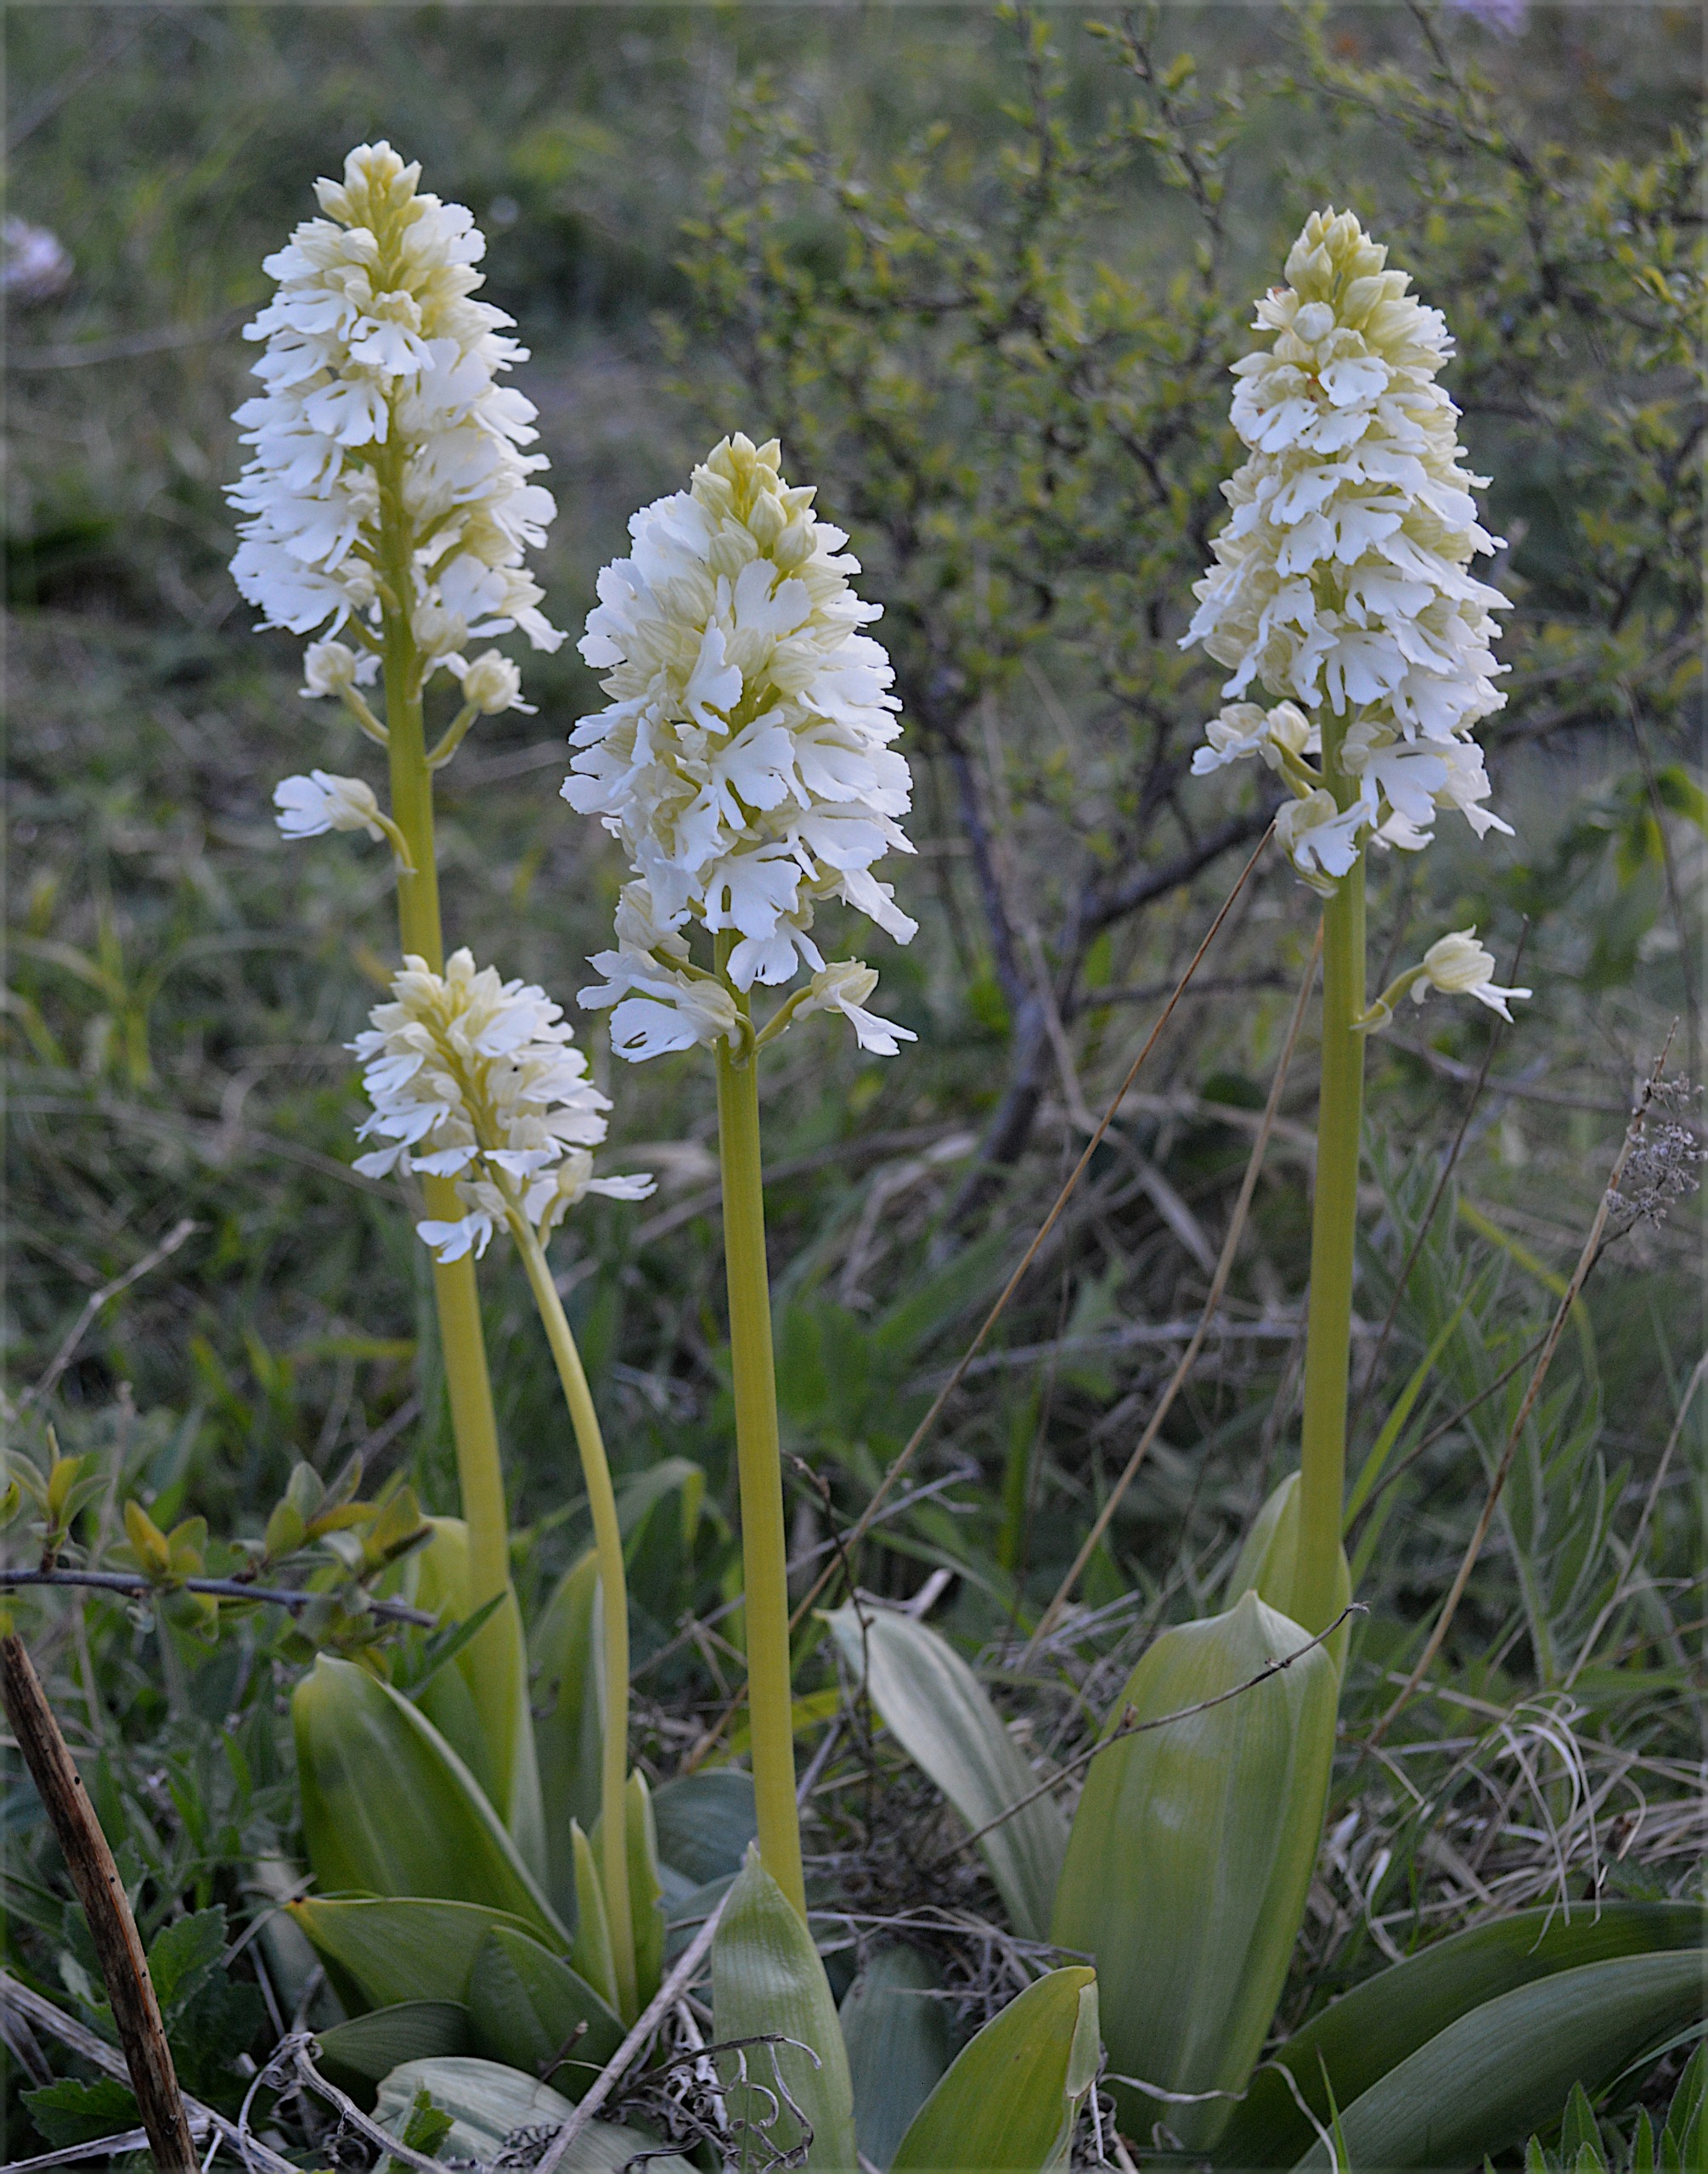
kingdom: Plantae
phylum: Tracheophyta
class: Liliopsida
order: Asparagales
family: Orchidaceae
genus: Orchis
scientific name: Orchis purpurea
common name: Stor gøgeurt
